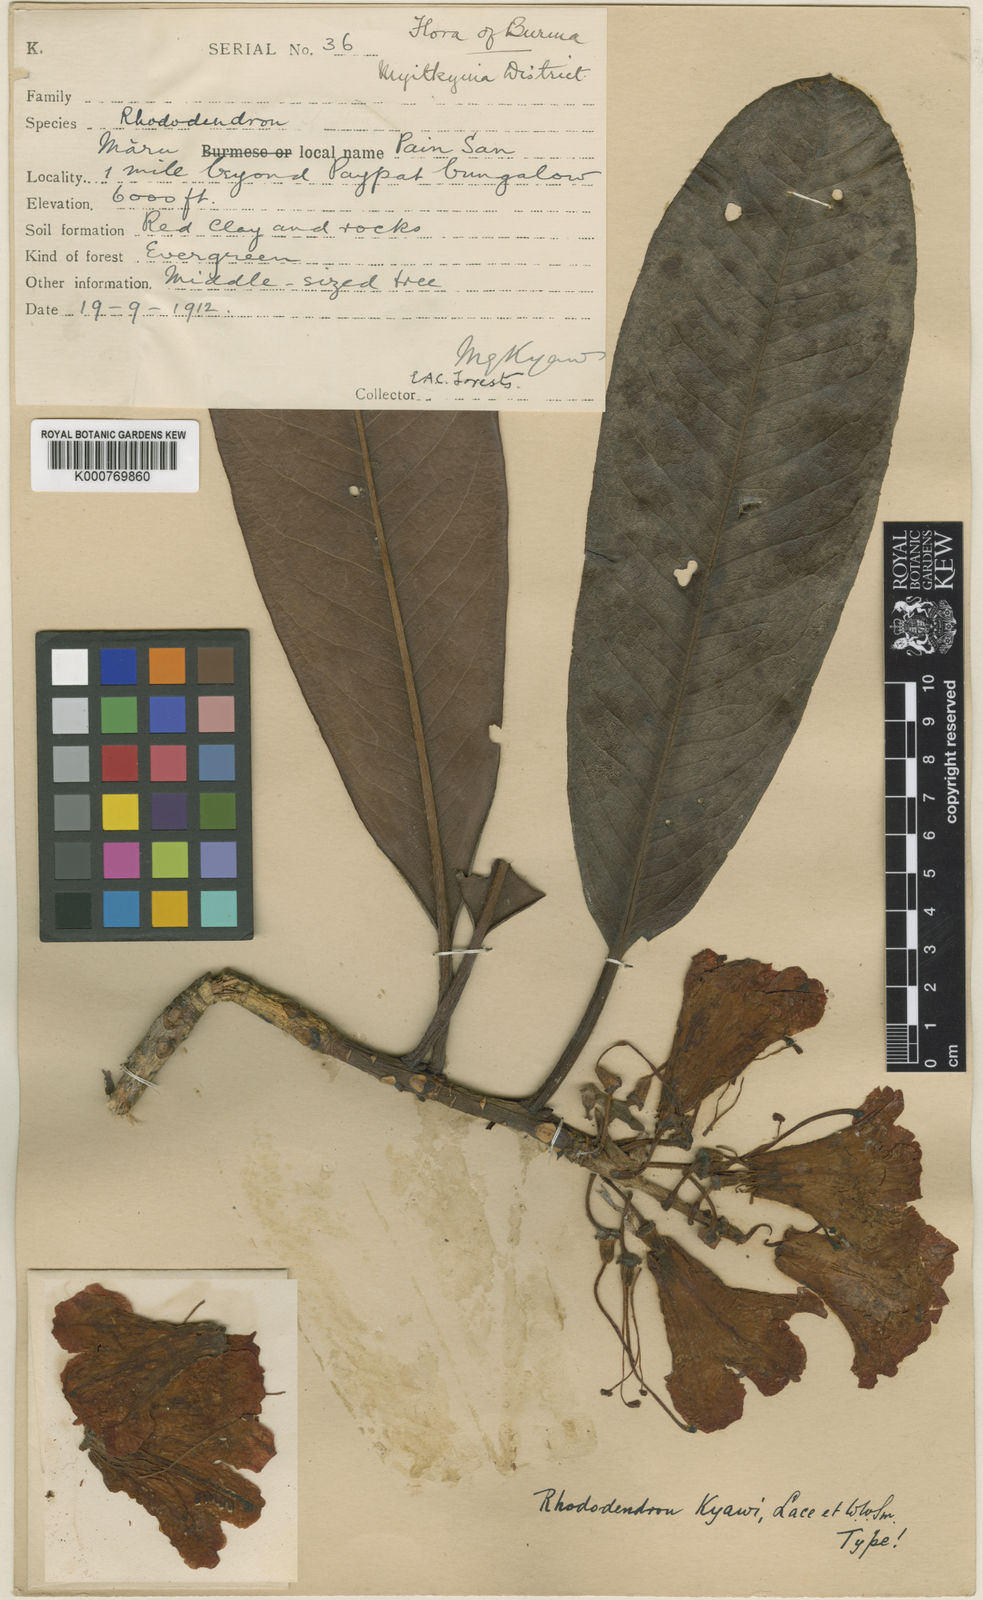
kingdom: Plantae
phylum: Tracheophyta
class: Magnoliopsida
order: Ericales
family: Ericaceae
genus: Rhododendron
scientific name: Rhododendron
